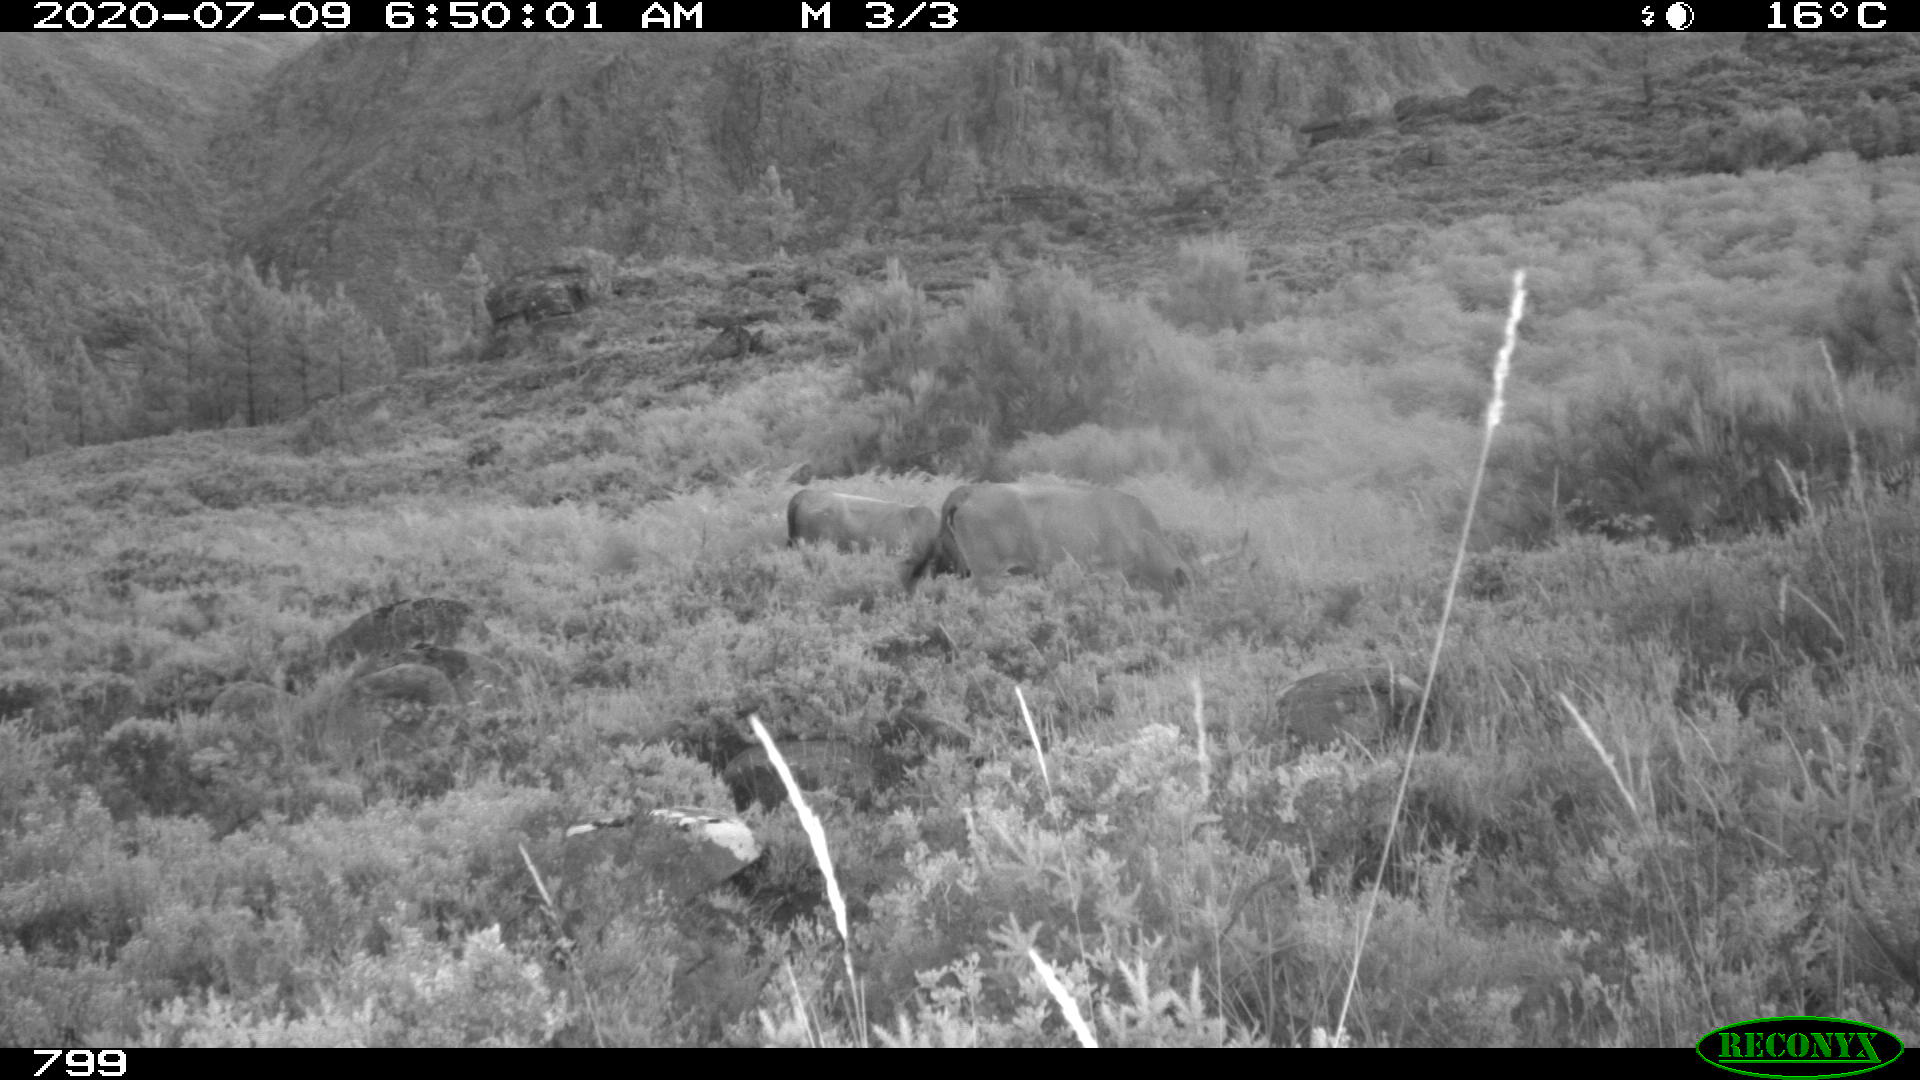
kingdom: Animalia
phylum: Chordata
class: Mammalia
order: Artiodactyla
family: Bovidae
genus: Bos
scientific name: Bos taurus
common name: Domesticated cattle
